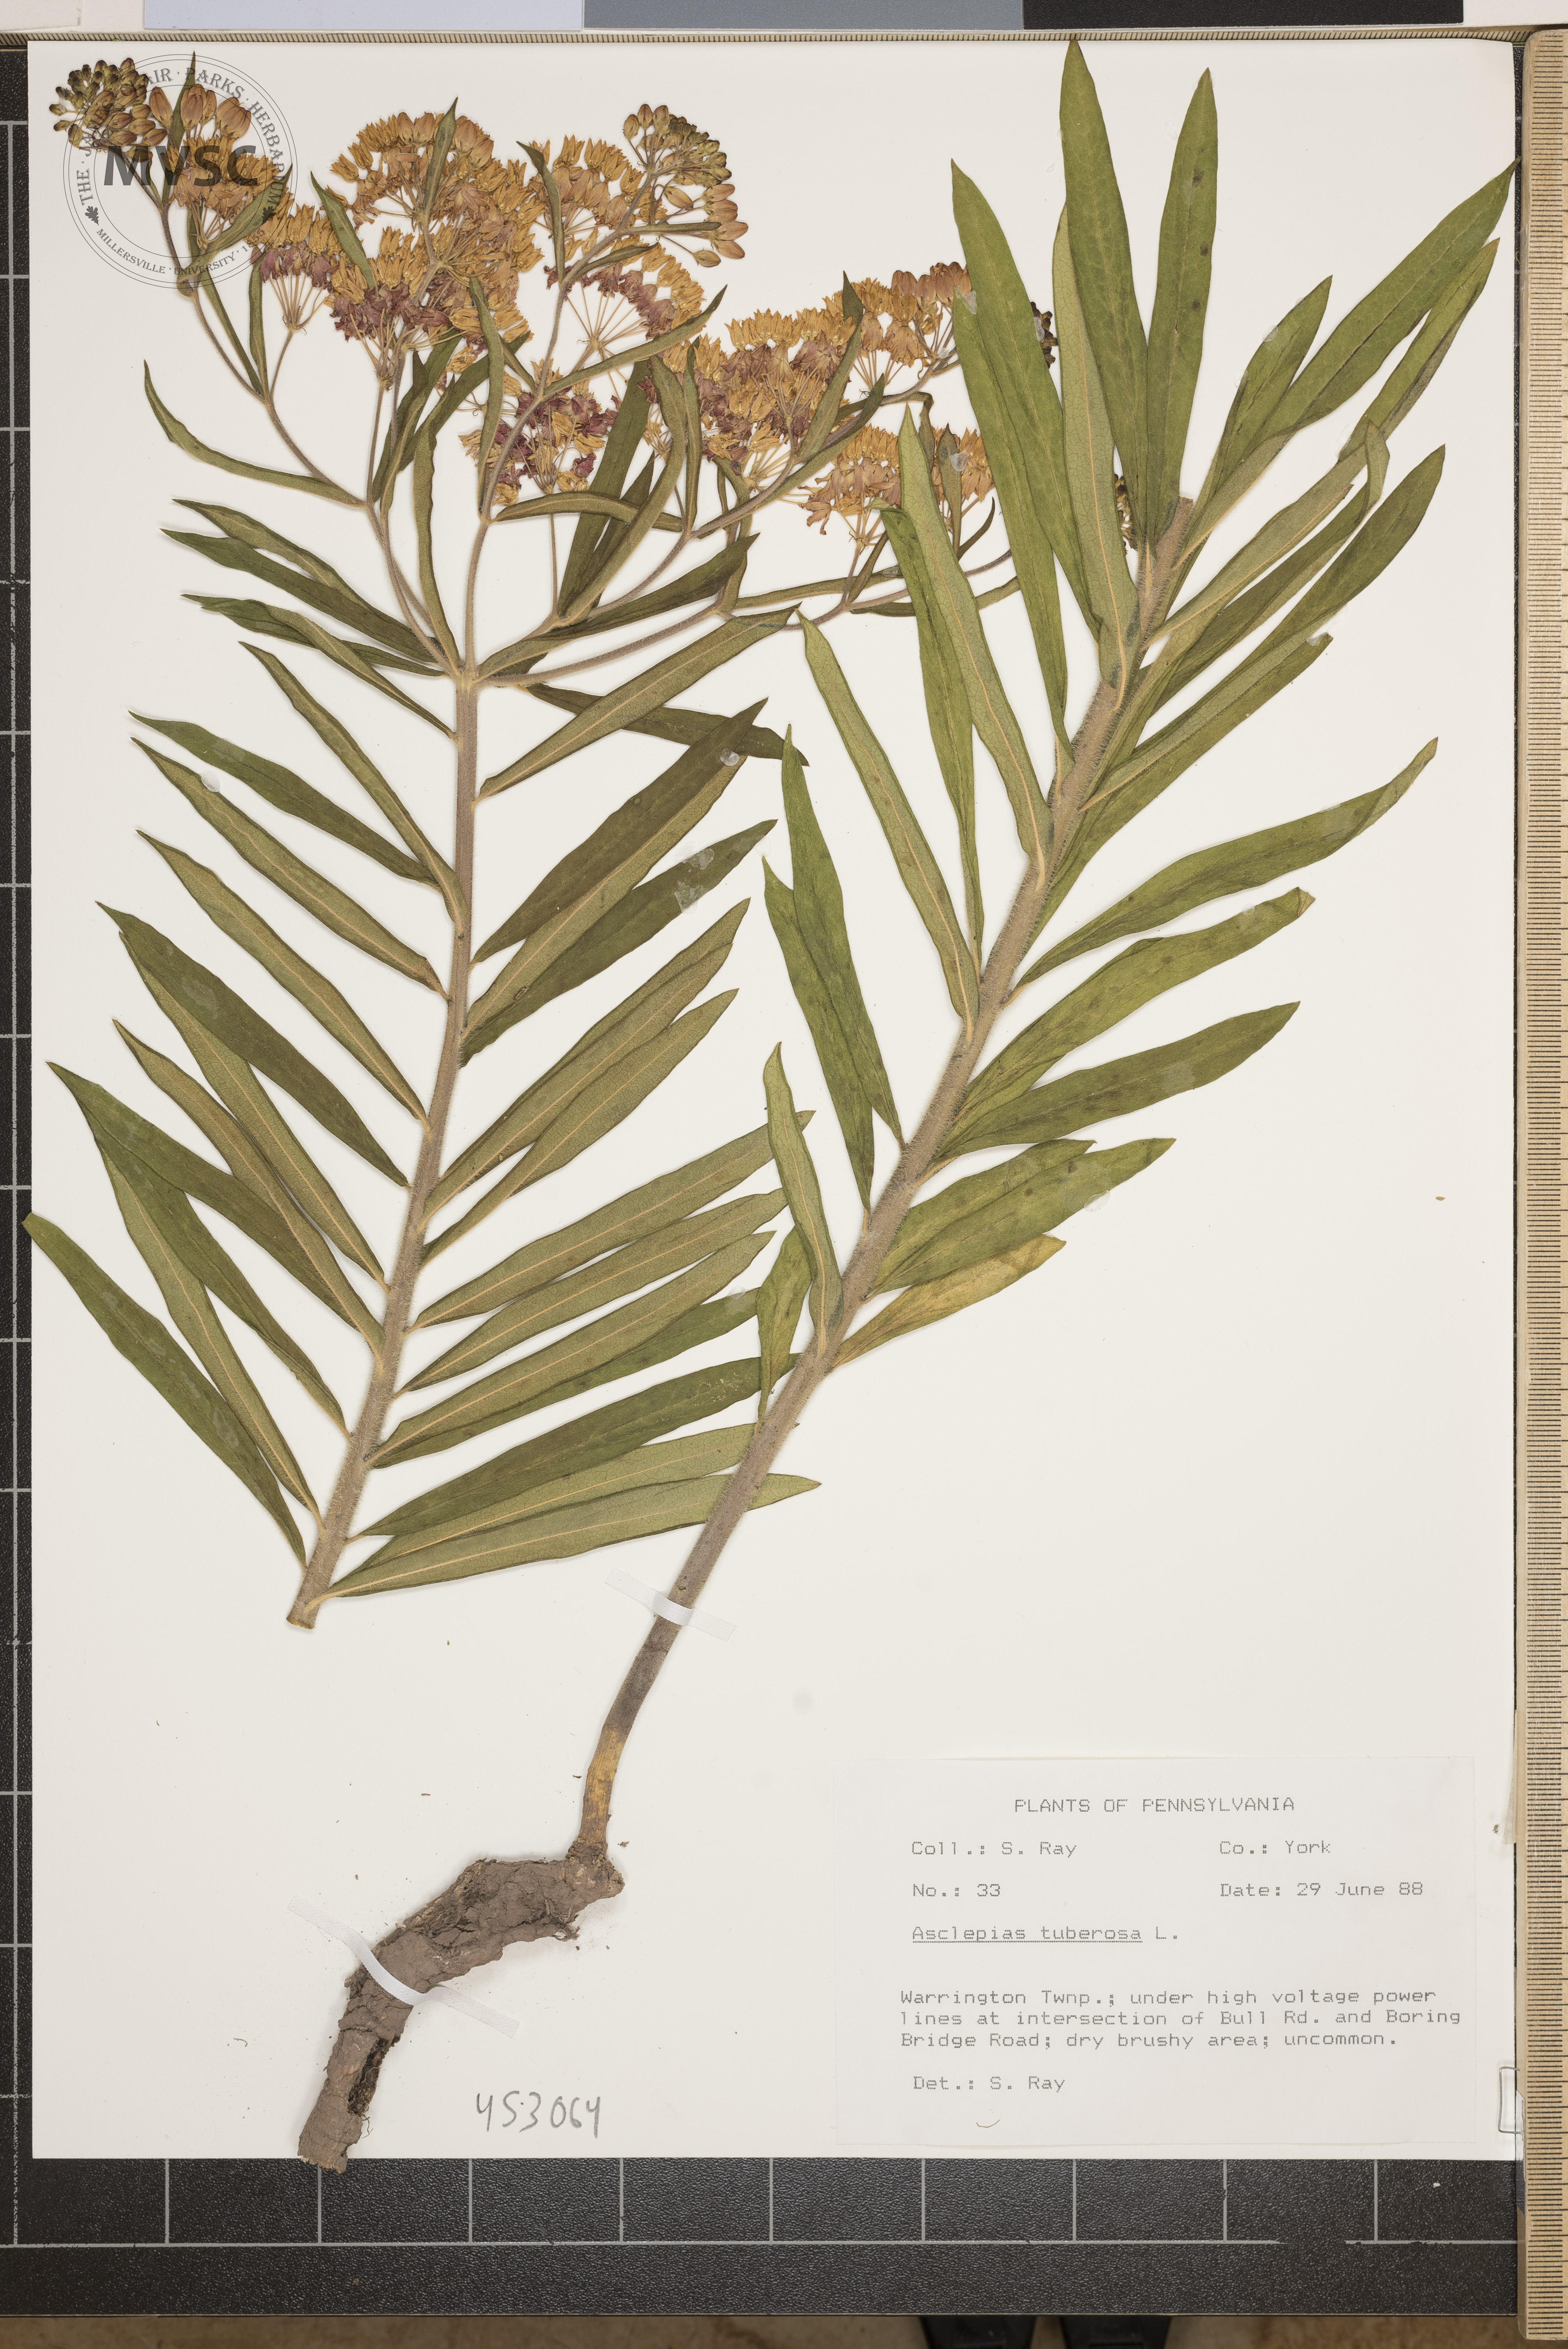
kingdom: Plantae
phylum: Tracheophyta
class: Magnoliopsida
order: Gentianales
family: Apocynaceae
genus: Asclepias
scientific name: Asclepias tuberosa
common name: Butterfly milkweed
